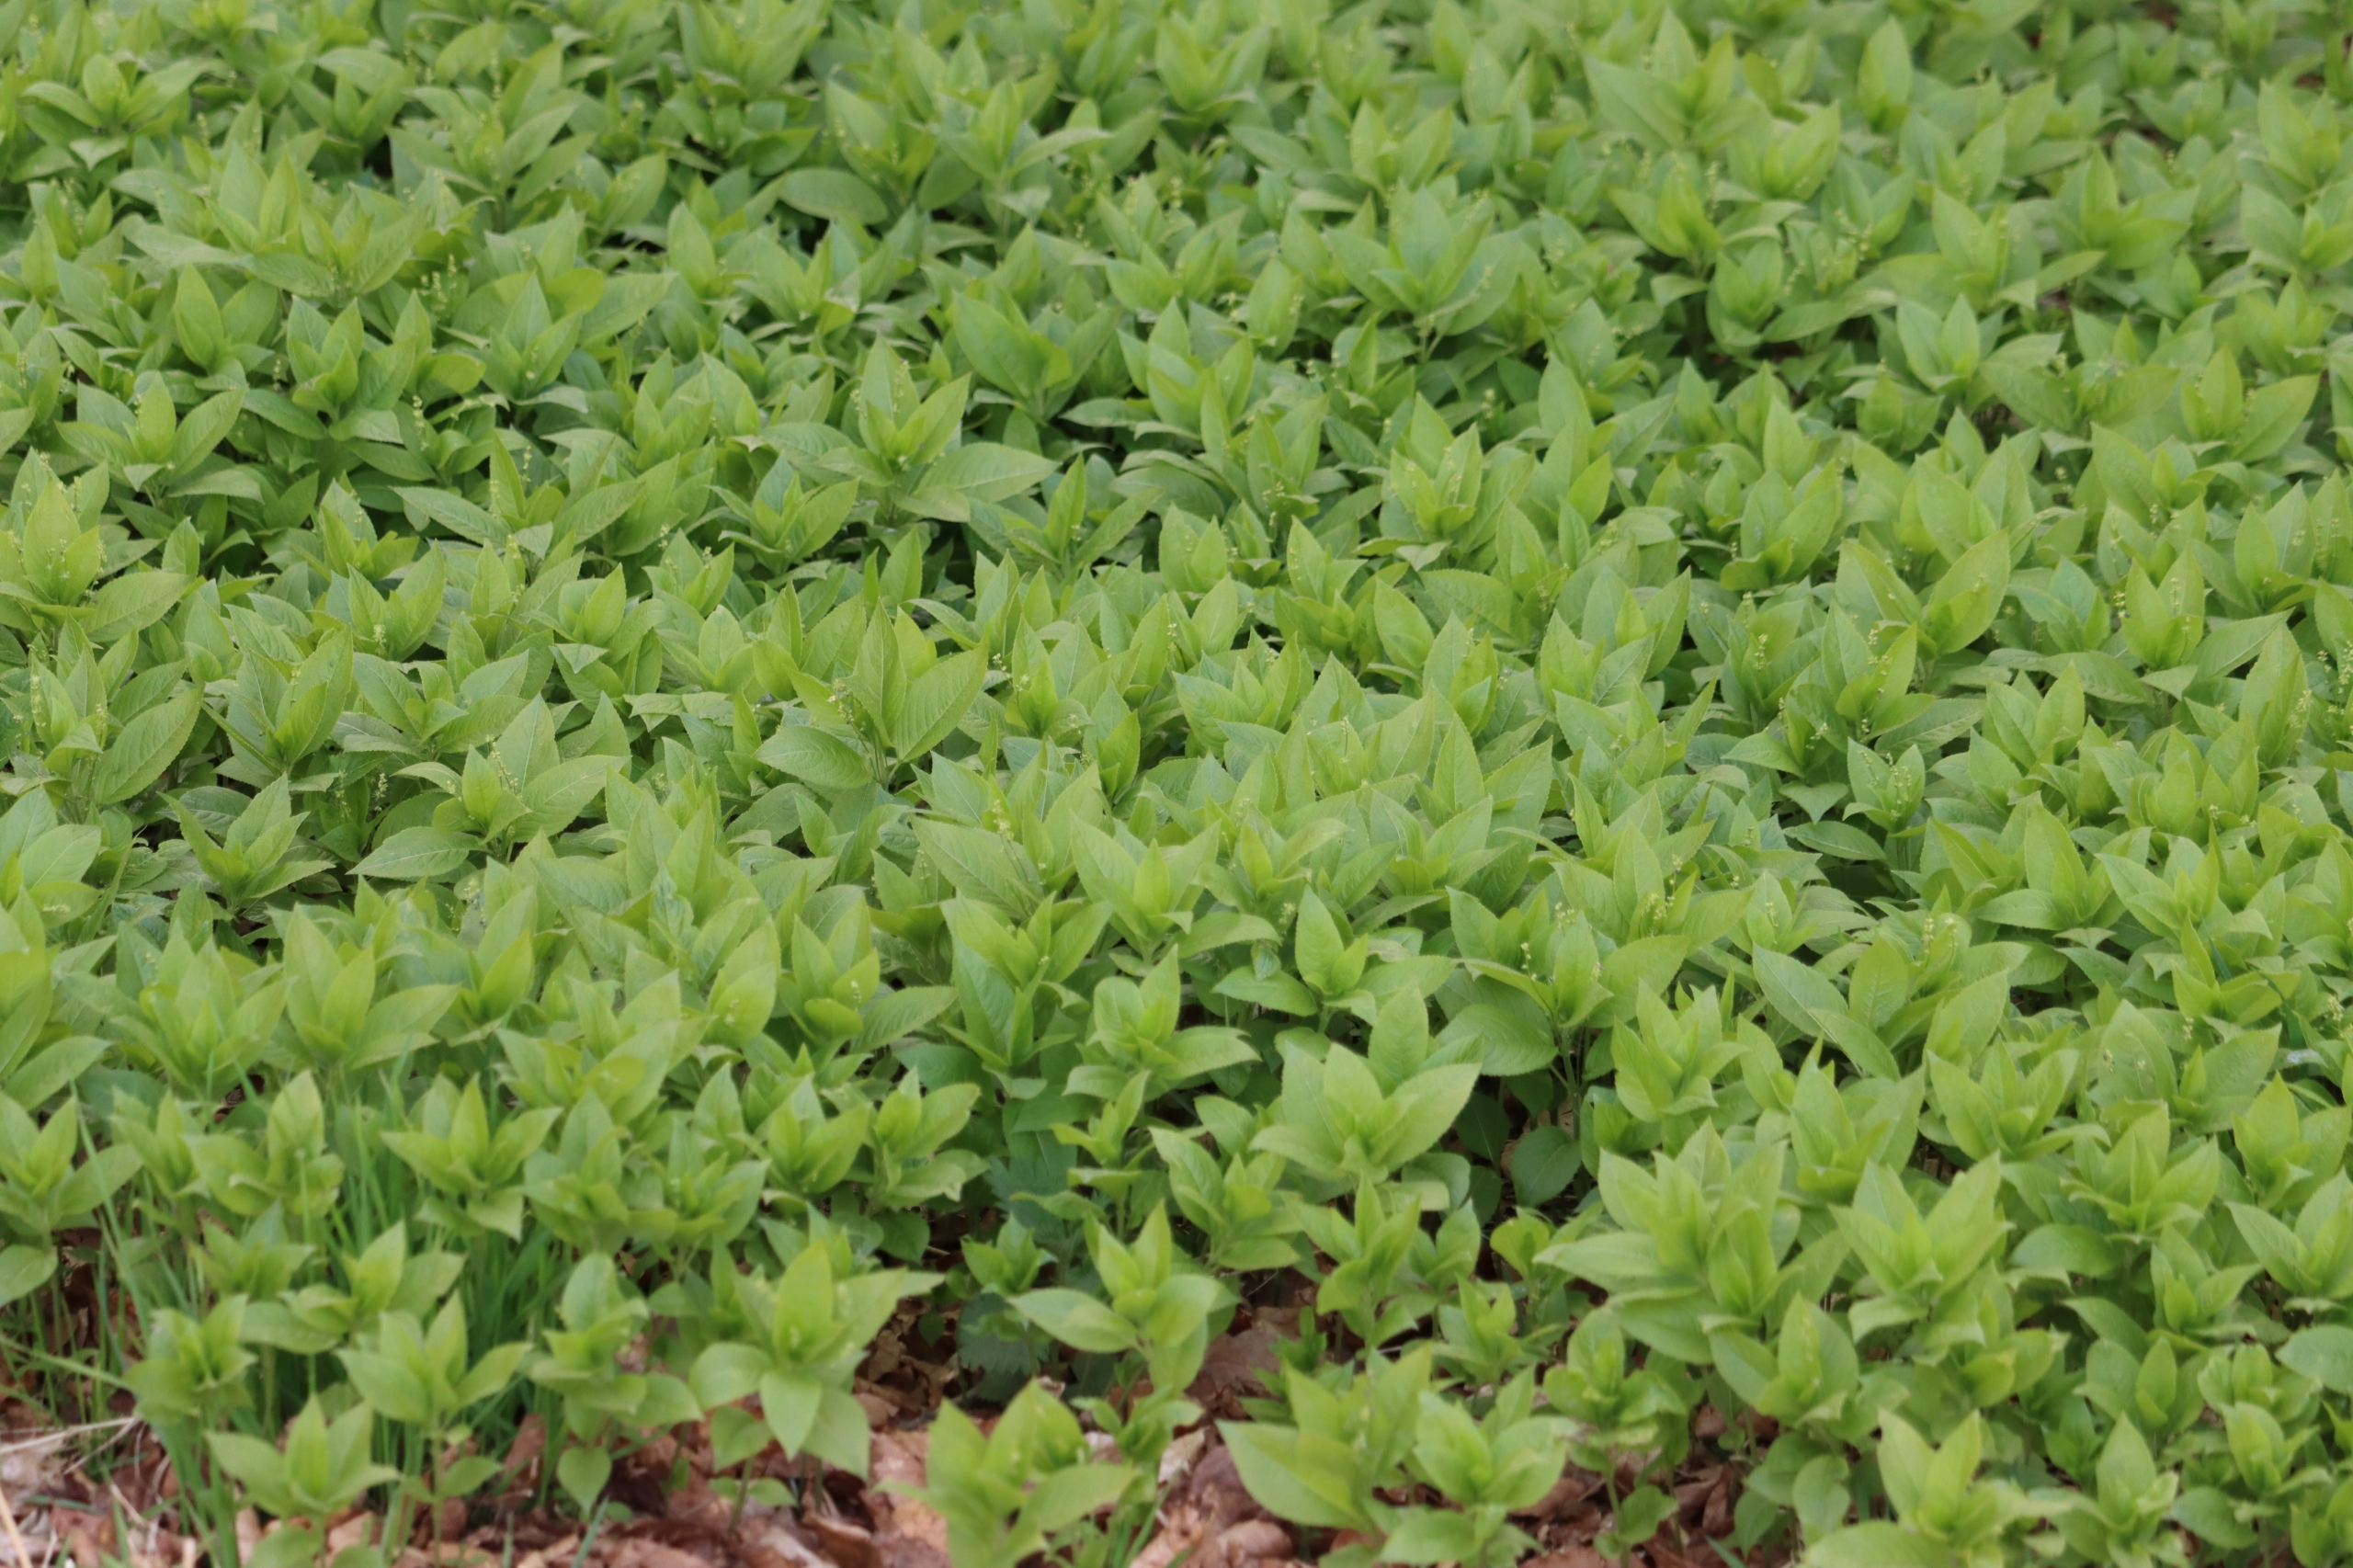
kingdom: Plantae
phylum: Tracheophyta
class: Magnoliopsida
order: Malpighiales
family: Euphorbiaceae
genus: Mercurialis
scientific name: Mercurialis perennis
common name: Almindelig bingelurt
